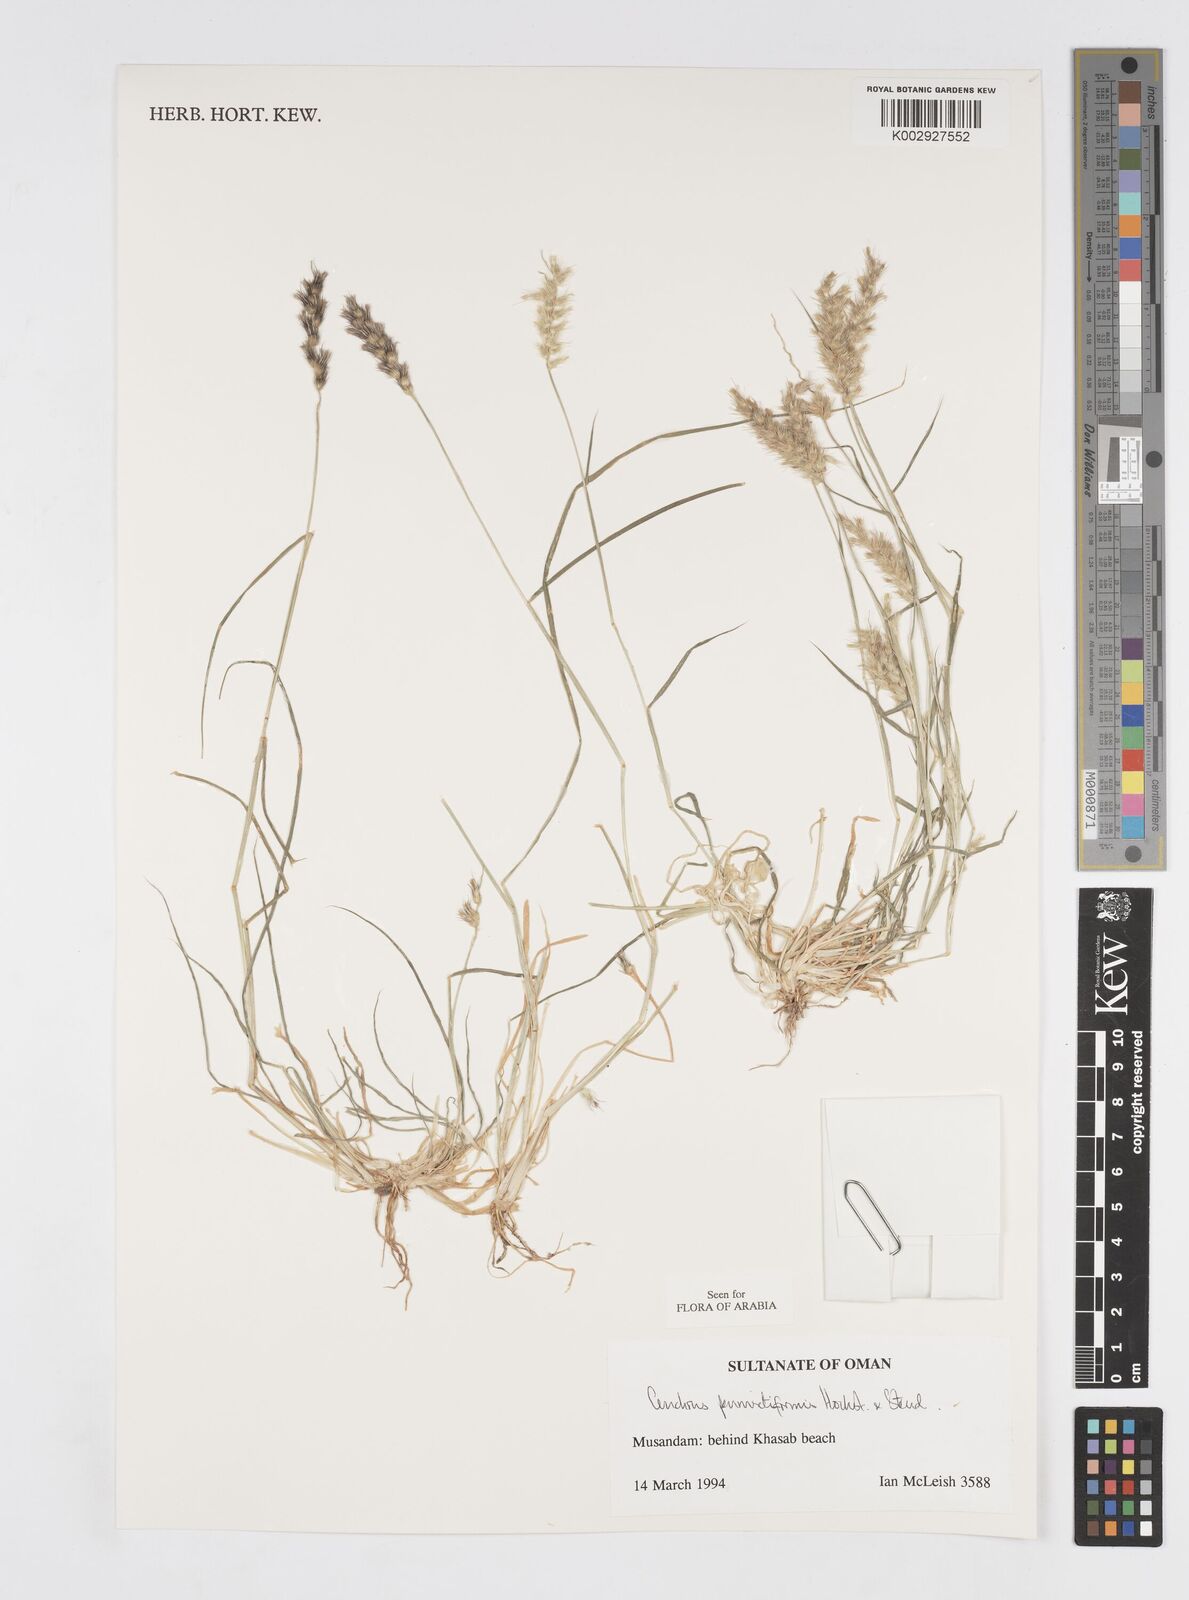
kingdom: Plantae
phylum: Tracheophyta
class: Liliopsida
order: Poales
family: Poaceae
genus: Cenchrus
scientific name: Cenchrus pennisetiformis
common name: Cloncurry
